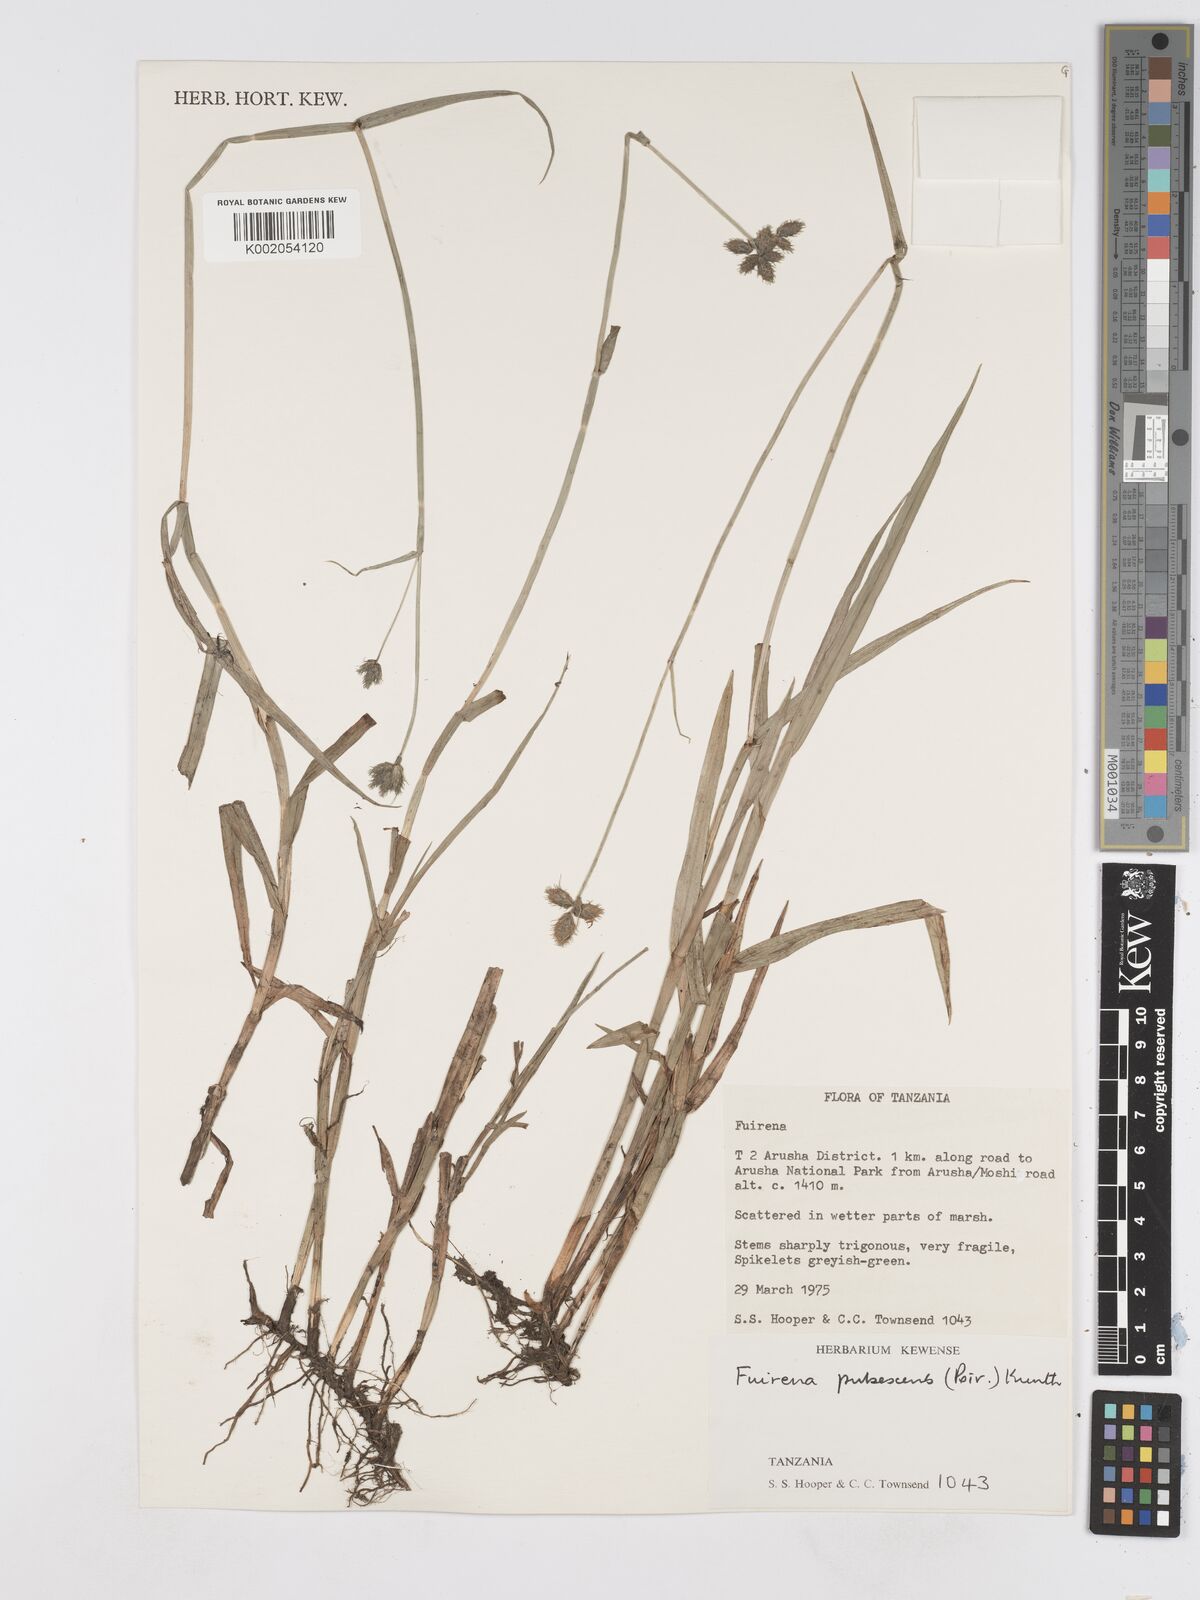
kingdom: Plantae
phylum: Tracheophyta
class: Liliopsida
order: Poales
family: Cyperaceae
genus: Fuirena
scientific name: Fuirena pubescens
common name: Hairy sedge
